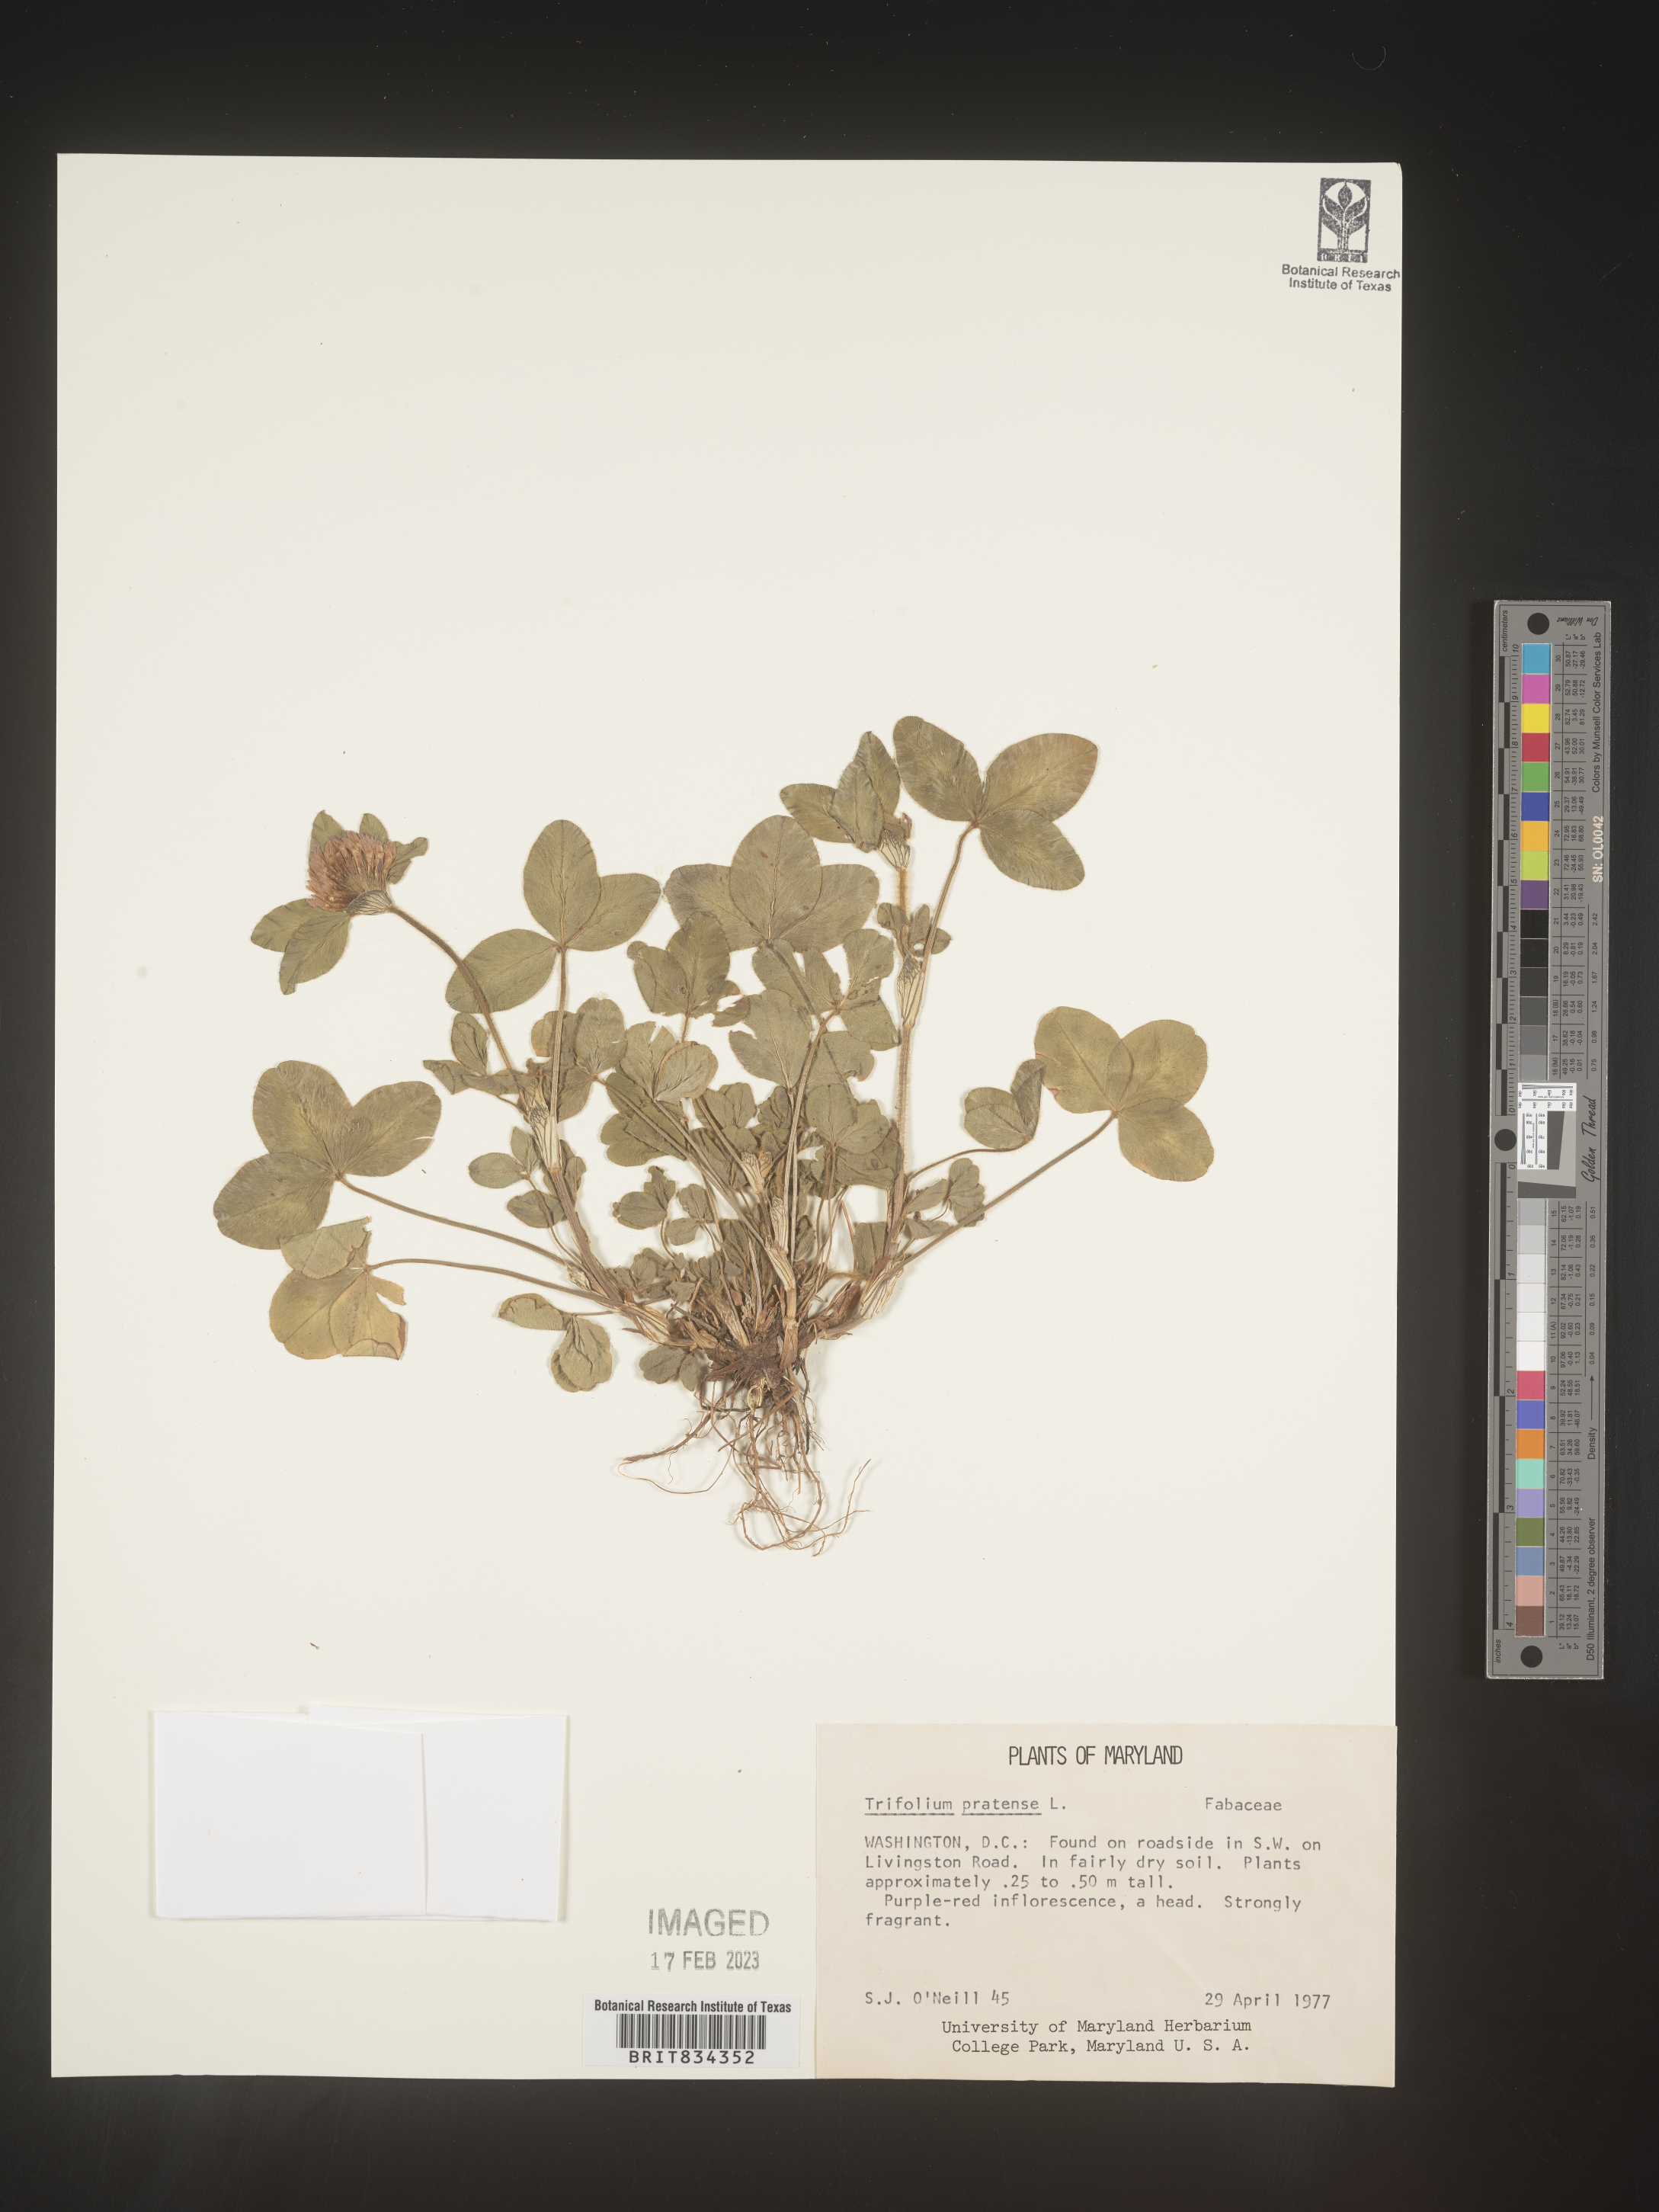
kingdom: Plantae
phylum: Tracheophyta
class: Magnoliopsida
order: Fabales
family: Fabaceae
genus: Trifolium
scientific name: Trifolium pratense
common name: Red clover
